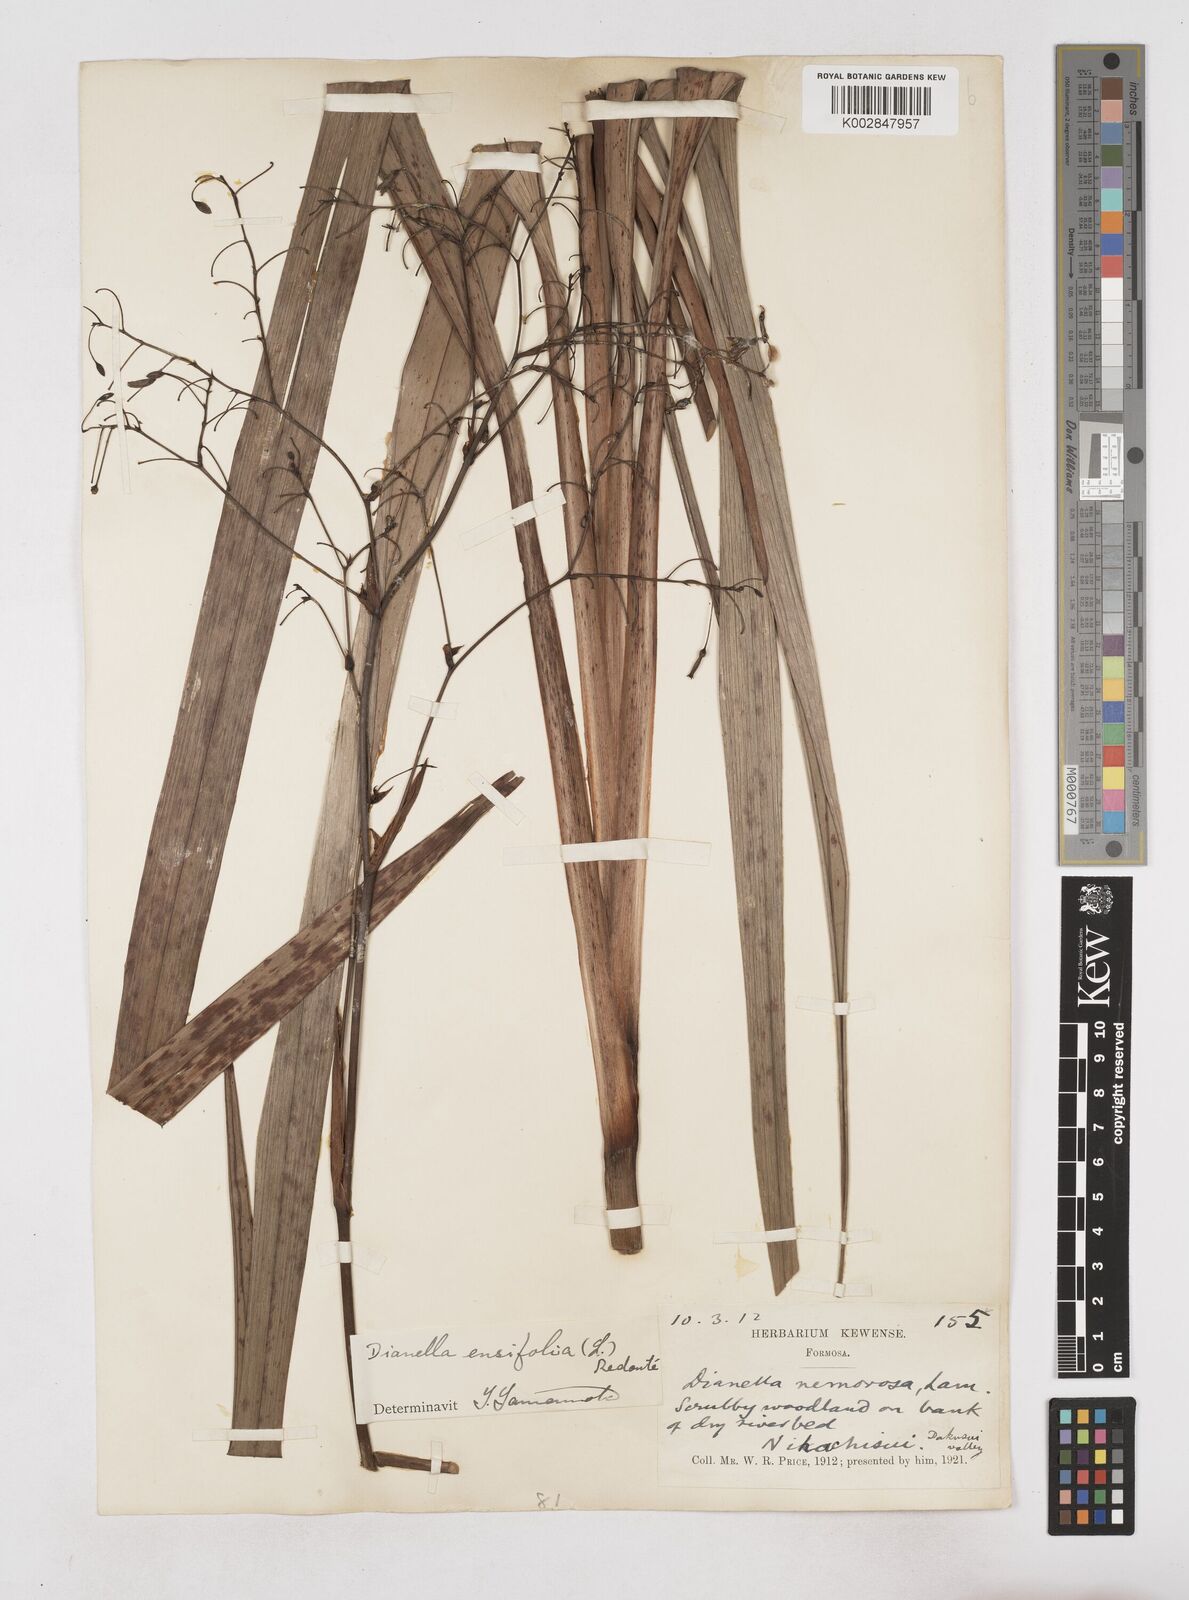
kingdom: Plantae
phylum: Tracheophyta
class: Liliopsida
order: Asparagales
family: Asphodelaceae
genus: Dianella
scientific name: Dianella ensifolia
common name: New zealand lilyplant
